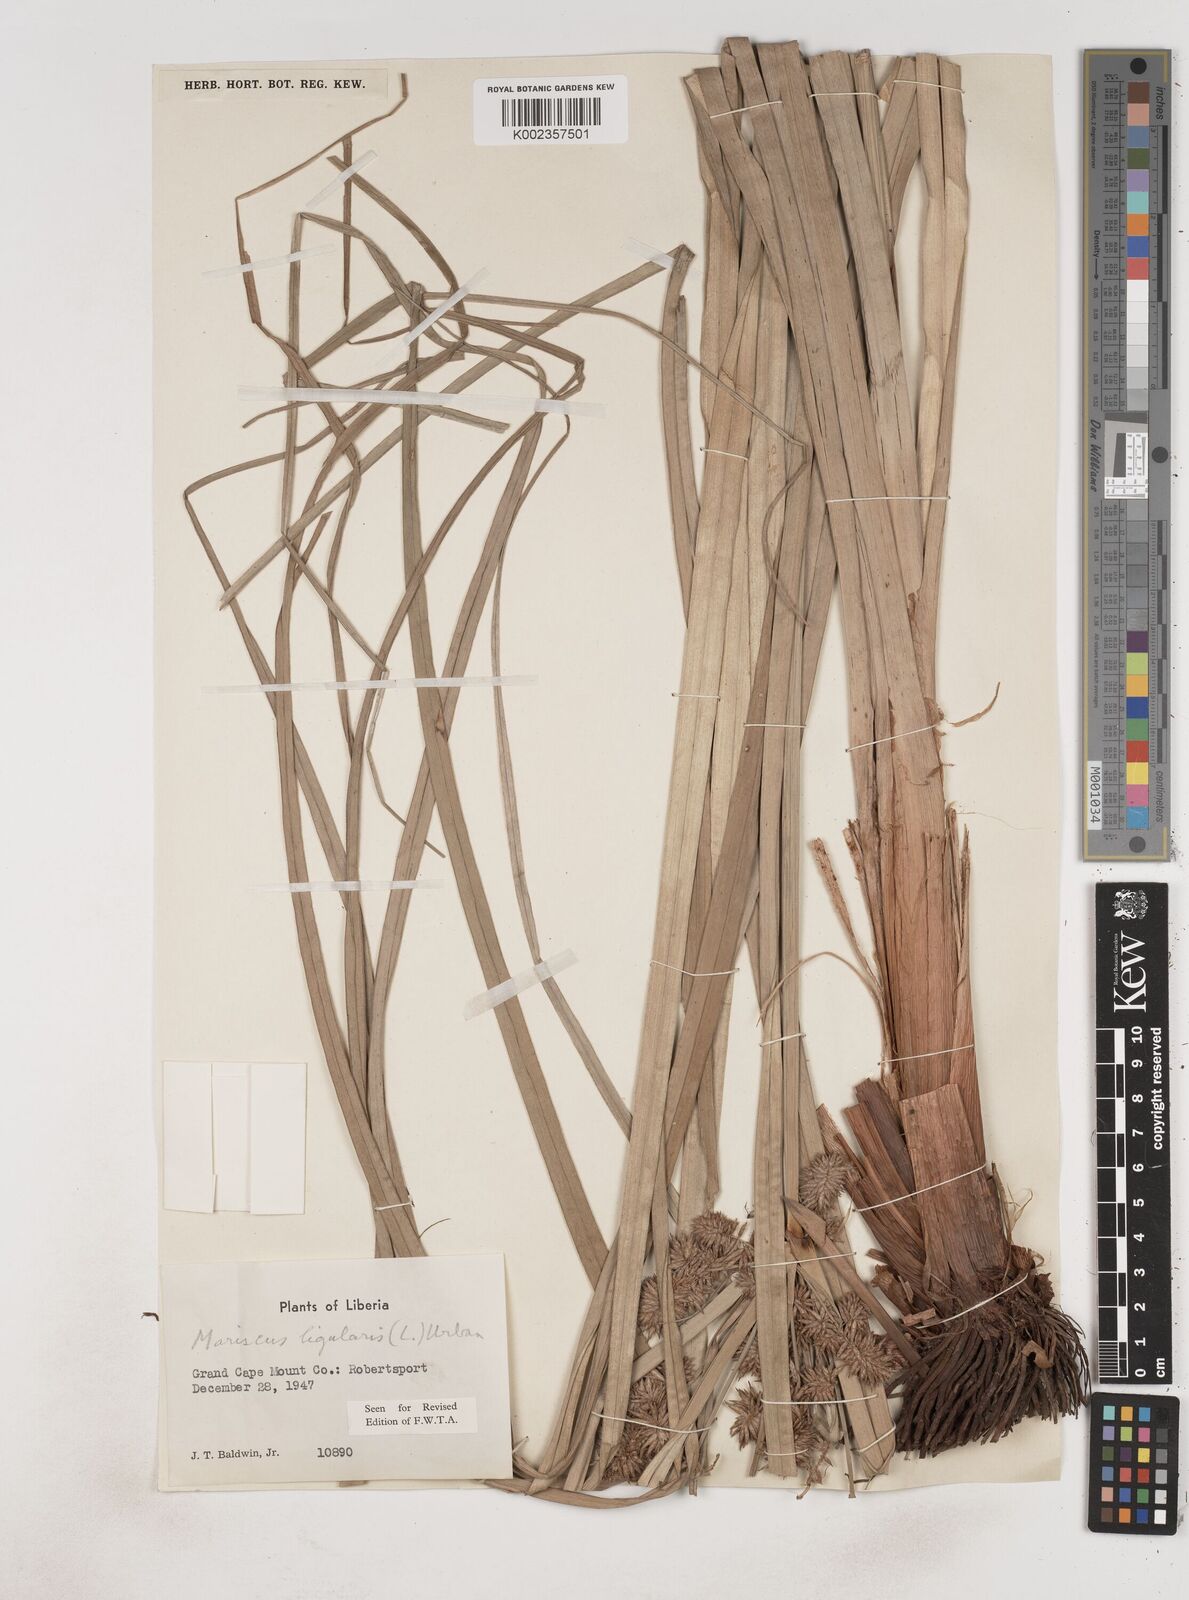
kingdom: Plantae
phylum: Tracheophyta
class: Liliopsida
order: Poales
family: Cyperaceae
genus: Cyperus
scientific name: Cyperus ligularis
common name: Swamp flat sedge
